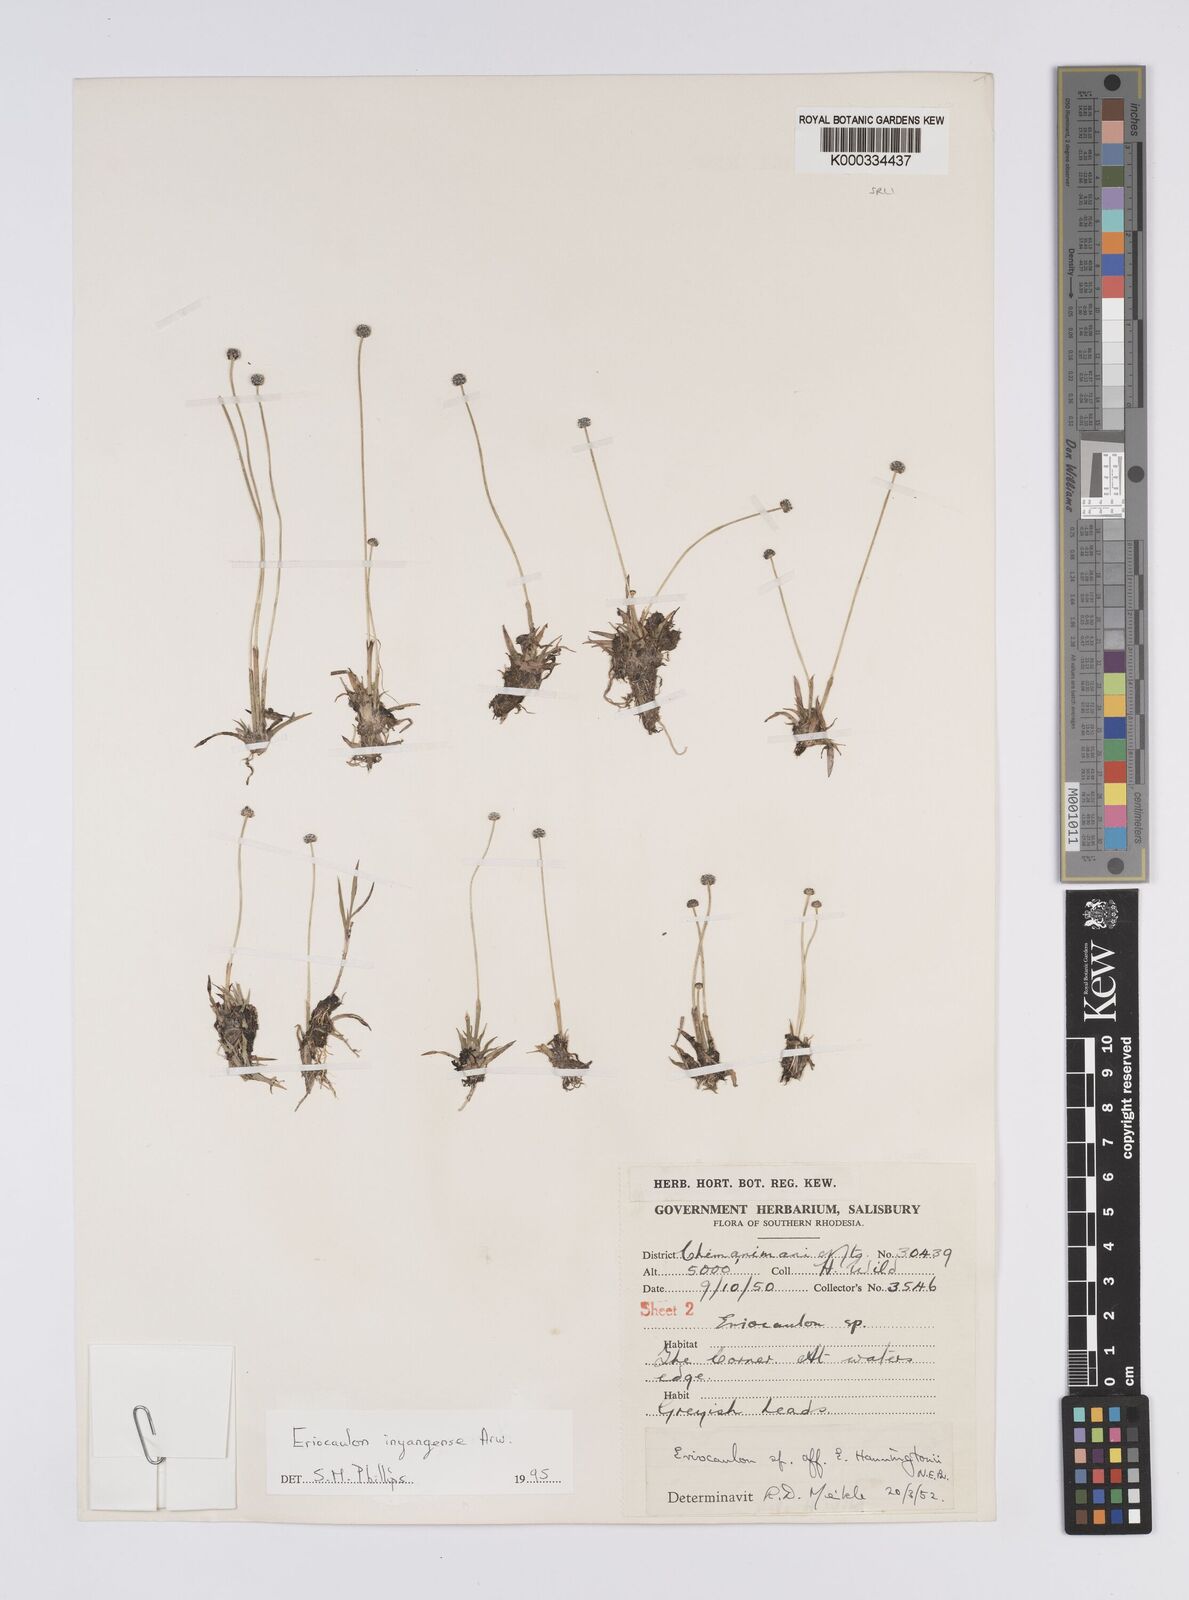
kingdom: Plantae
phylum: Tracheophyta
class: Liliopsida
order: Poales
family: Eriocaulaceae
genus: Eriocaulon
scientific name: Eriocaulon inyangense
